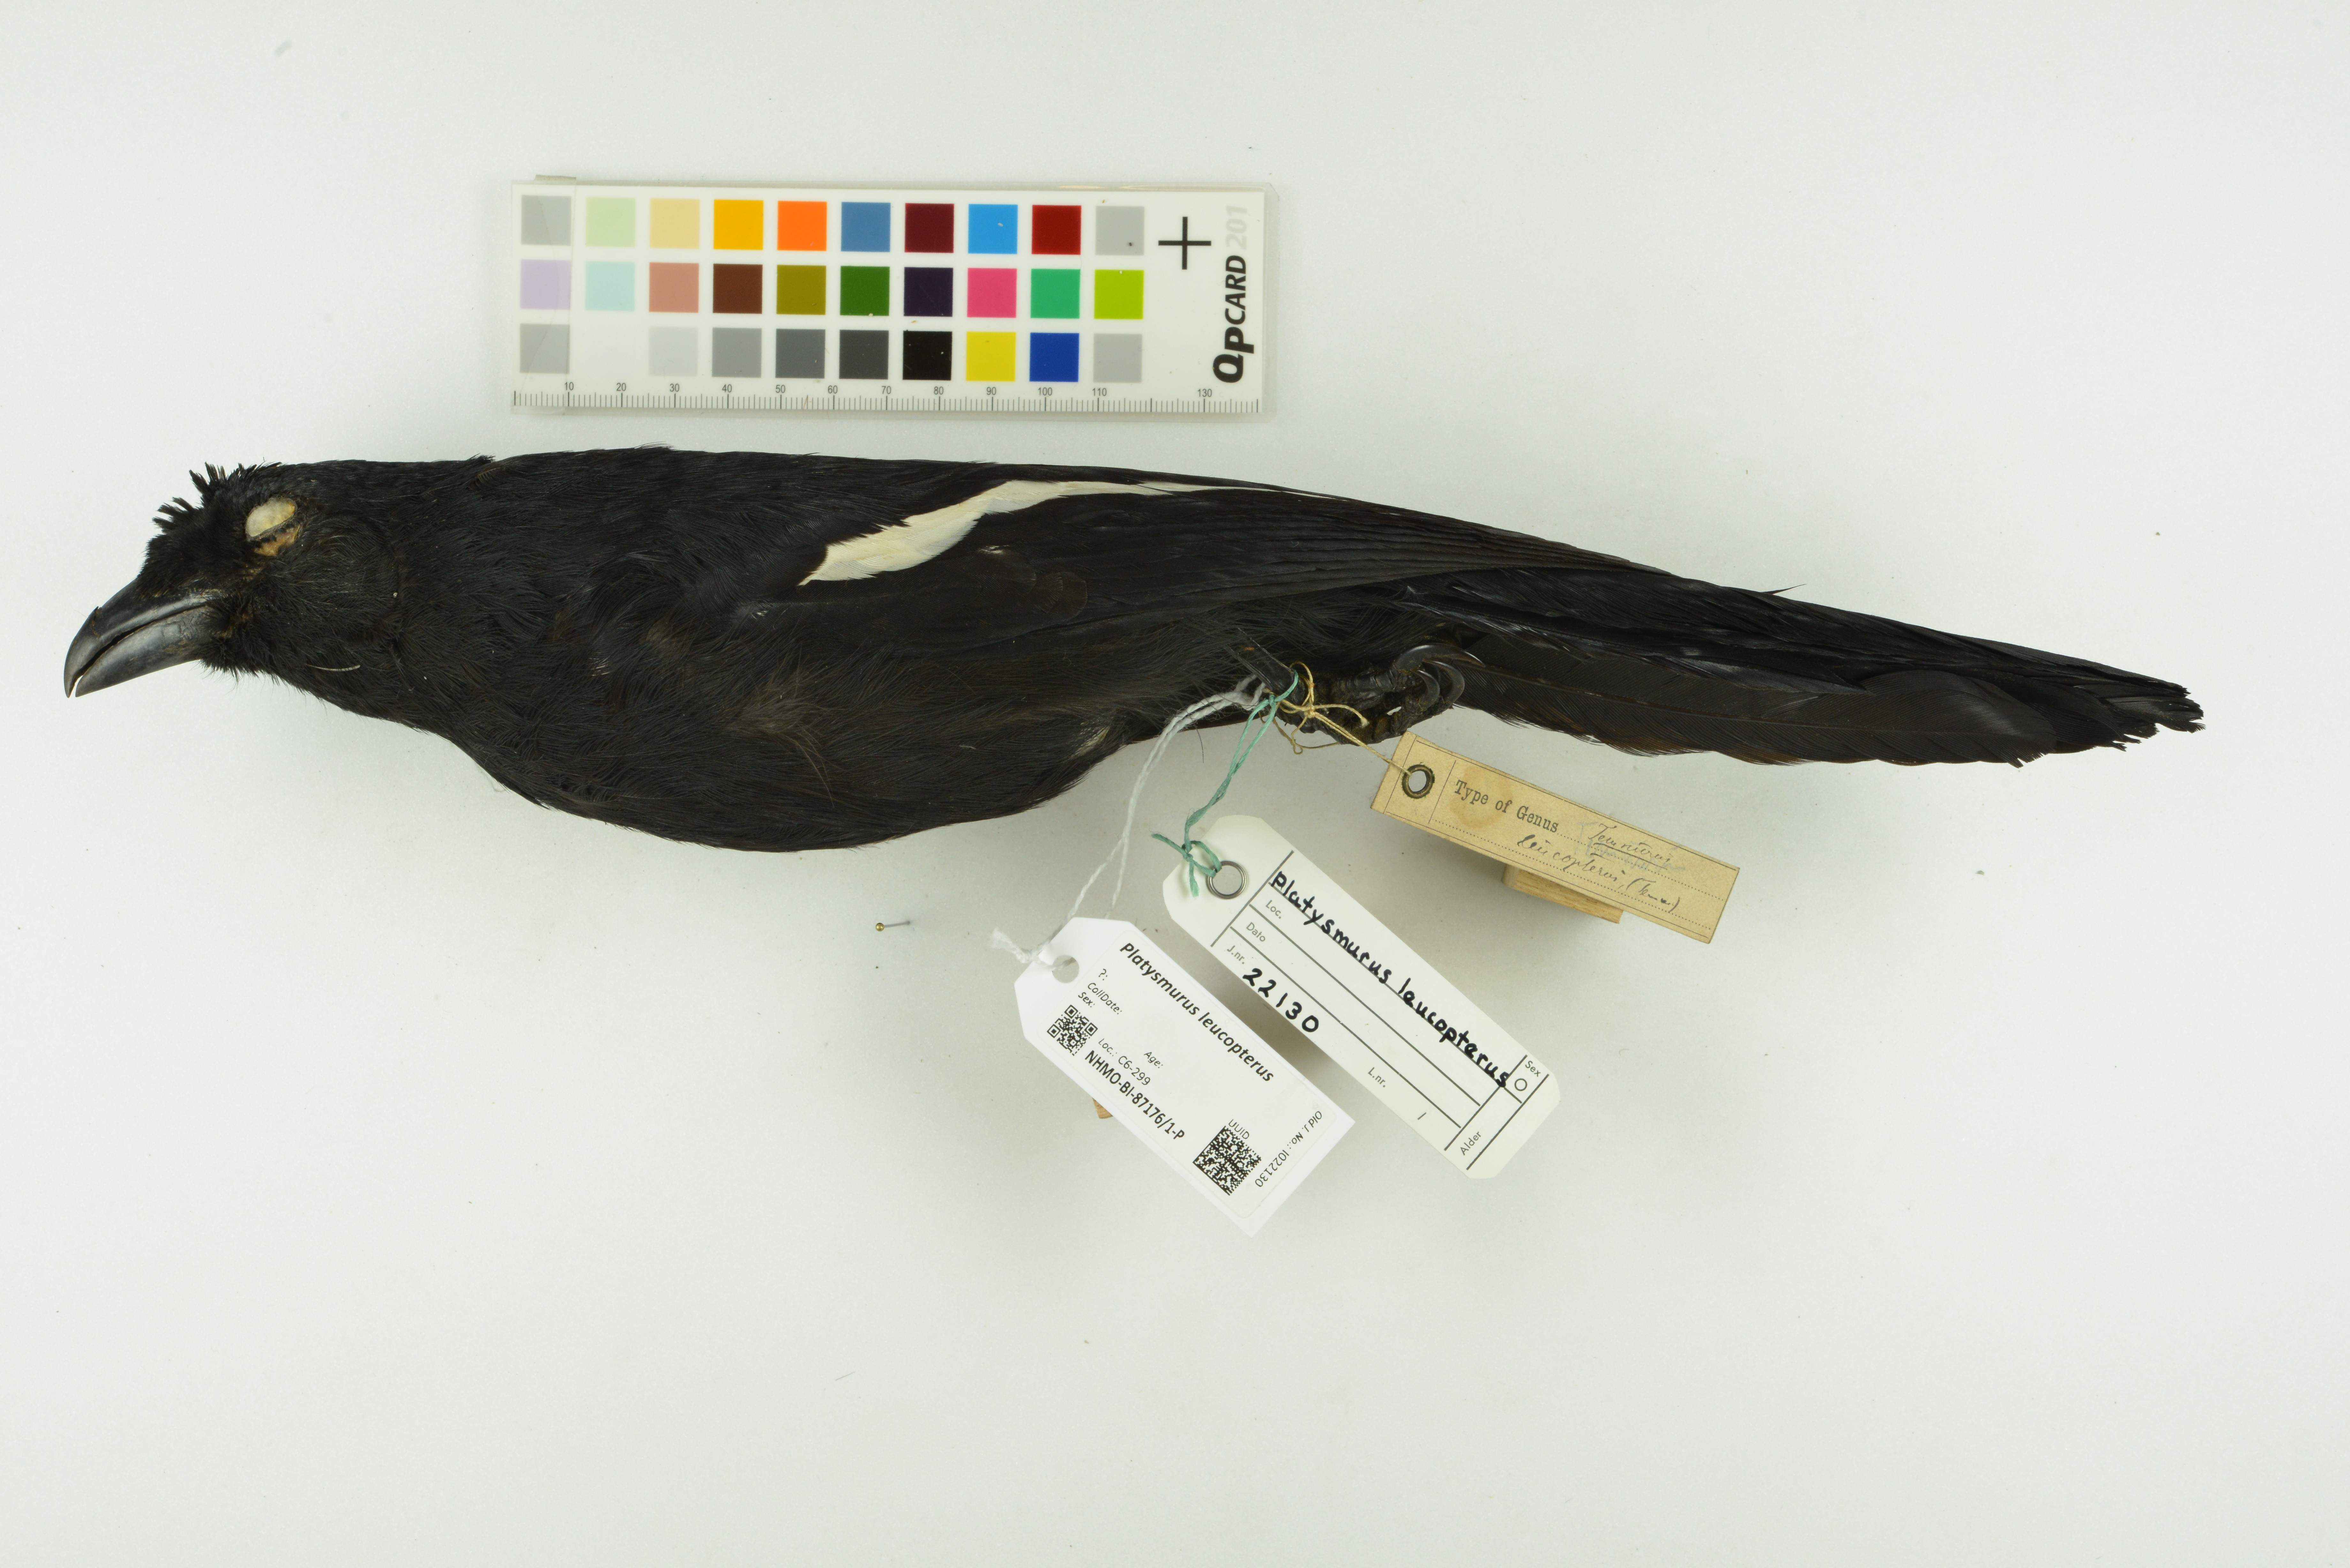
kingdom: Animalia
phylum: Chordata
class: Aves
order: Passeriformes
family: Corvidae
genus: Platysmurus
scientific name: Platysmurus leucopterus
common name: Black magpie
